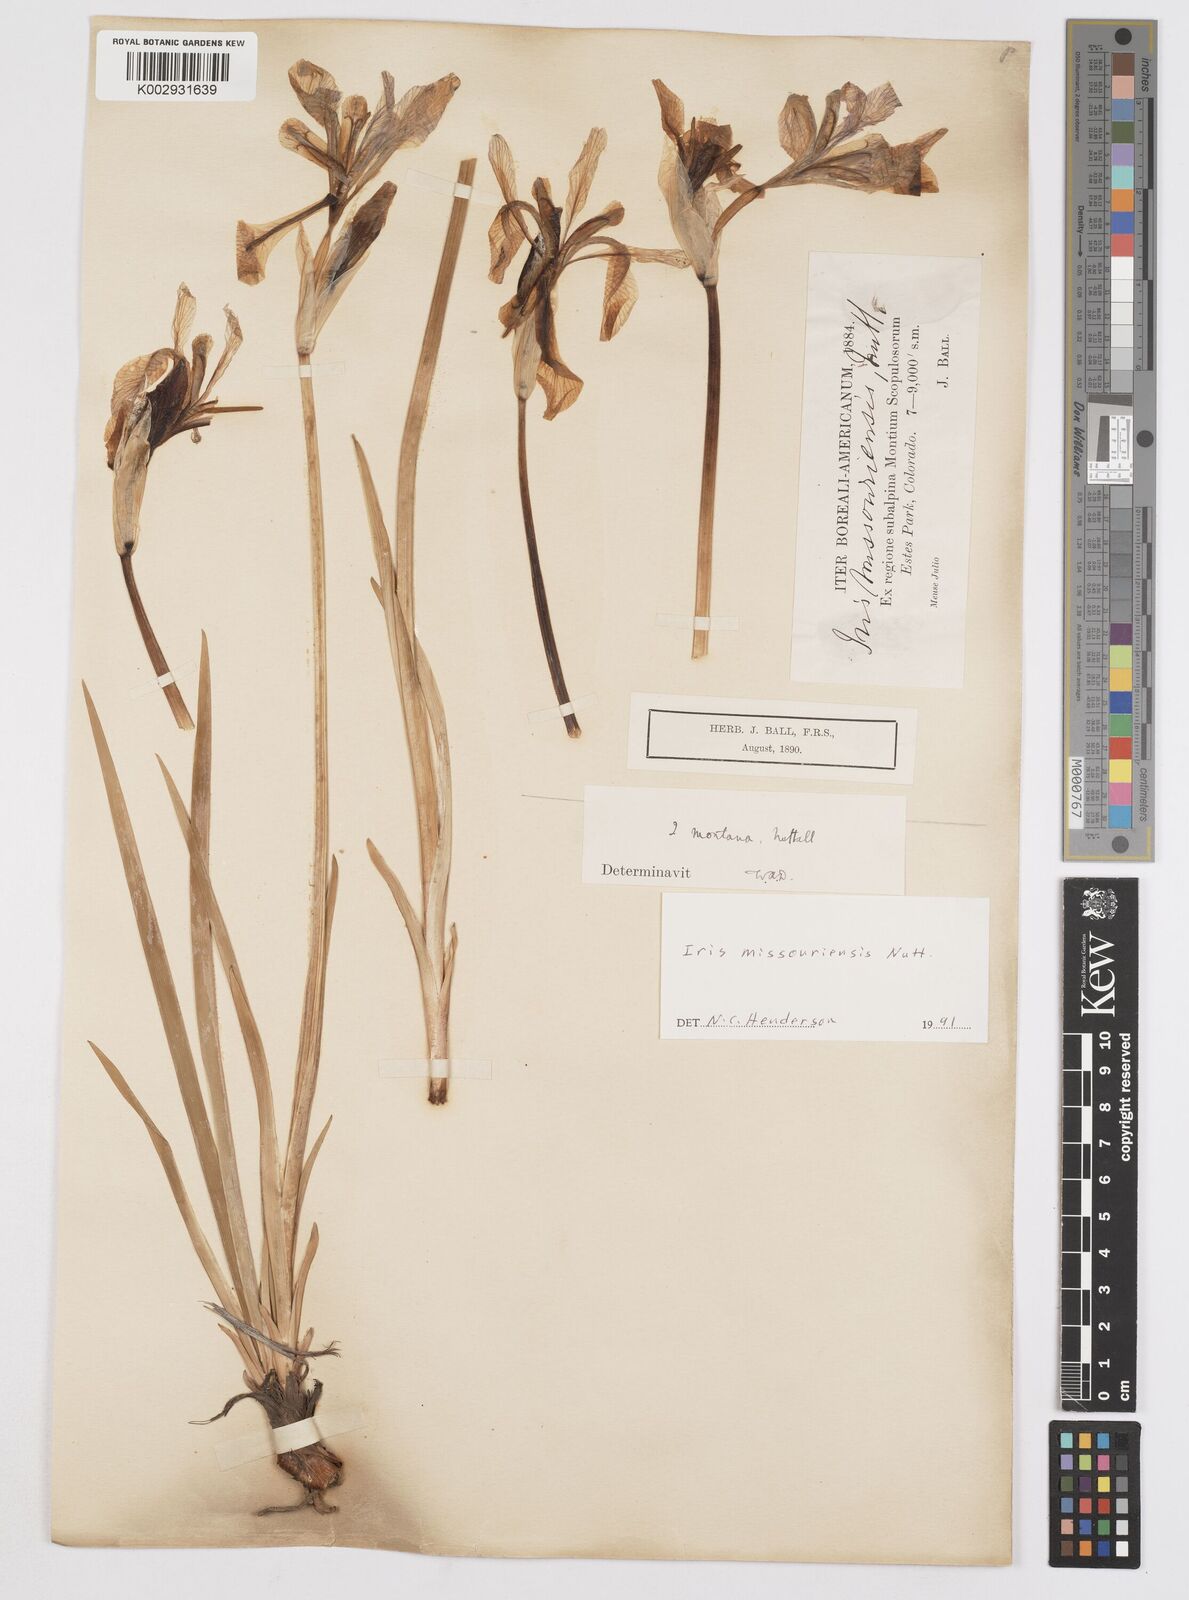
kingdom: Plantae
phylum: Tracheophyta
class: Liliopsida
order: Asparagales
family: Iridaceae
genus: Iris
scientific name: Iris missouriensis
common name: Rocky mountain iris
